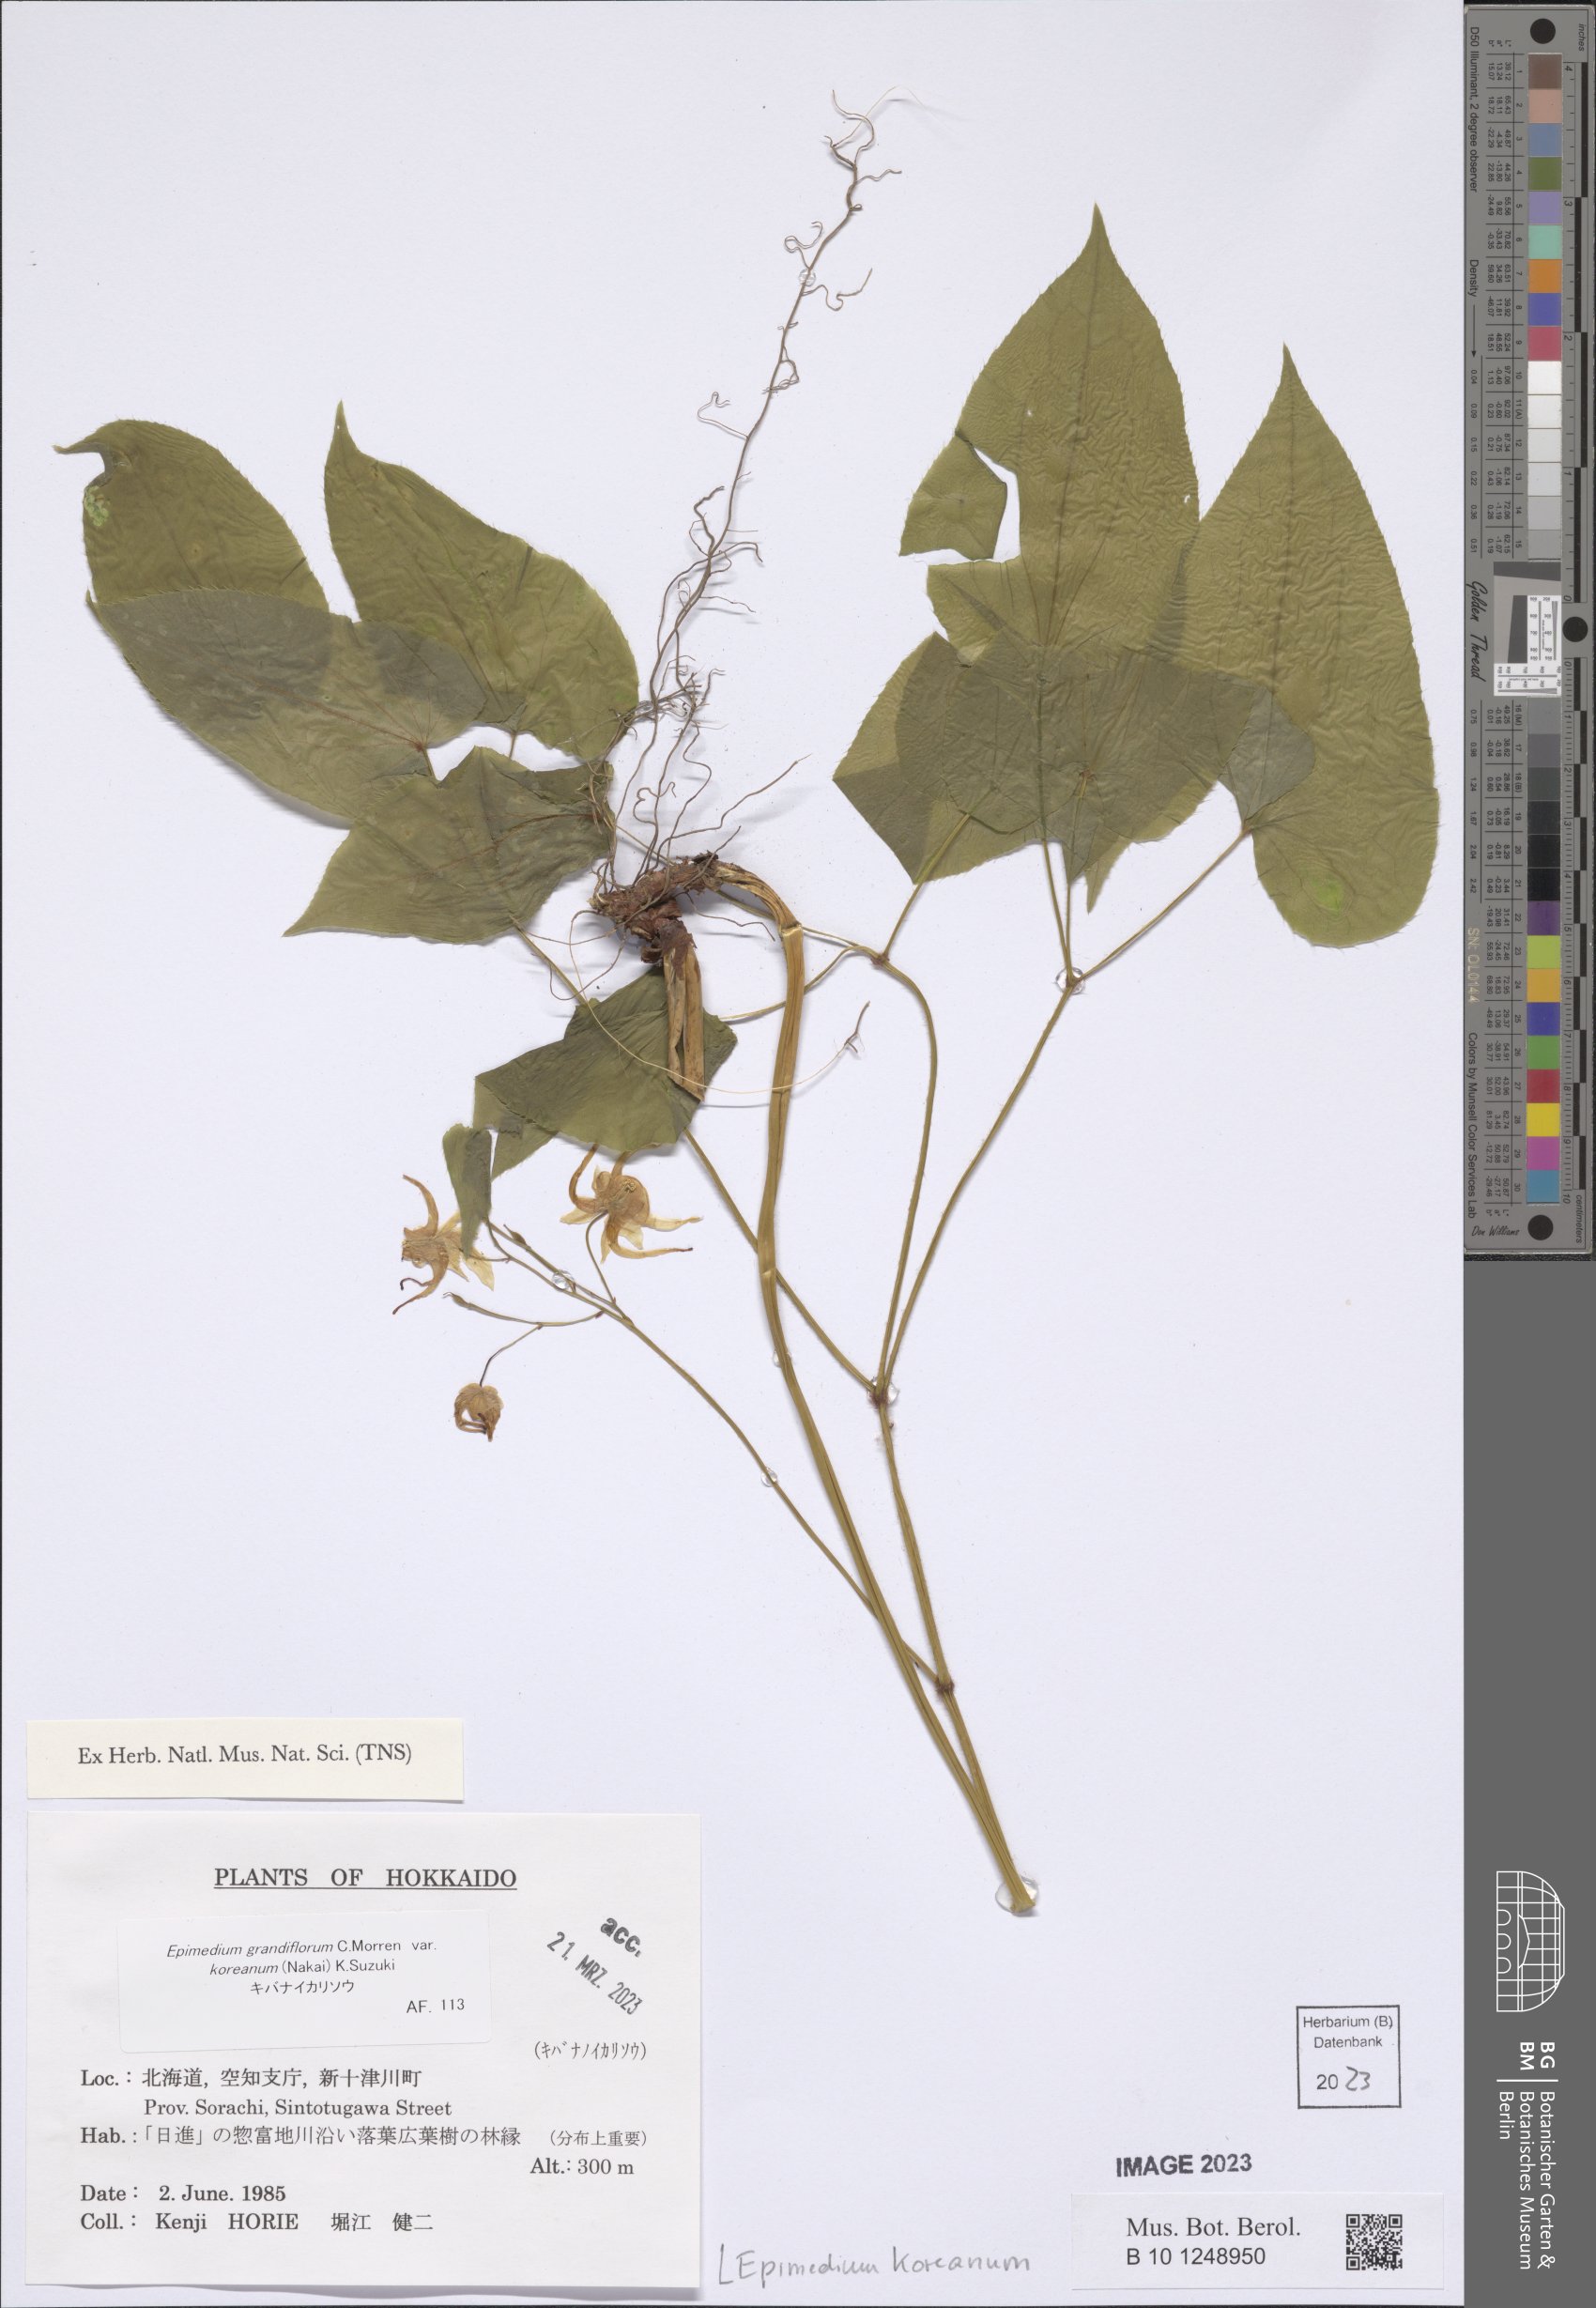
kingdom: Plantae
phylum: Tracheophyta
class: Magnoliopsida
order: Ranunculales
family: Berberidaceae
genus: Epimedium
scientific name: Epimedium koreanum
